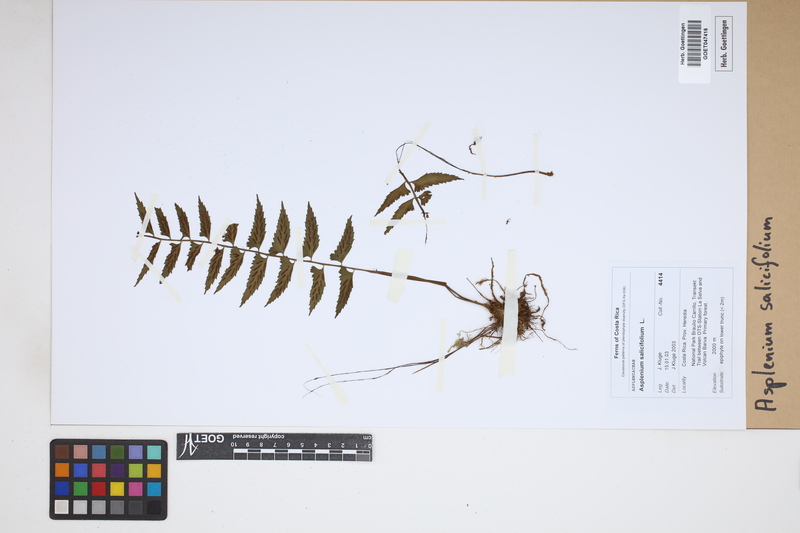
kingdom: Plantae
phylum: Tracheophyta
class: Polypodiopsida
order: Polypodiales
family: Aspleniaceae
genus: Asplenium
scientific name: Asplenium salicifolium
